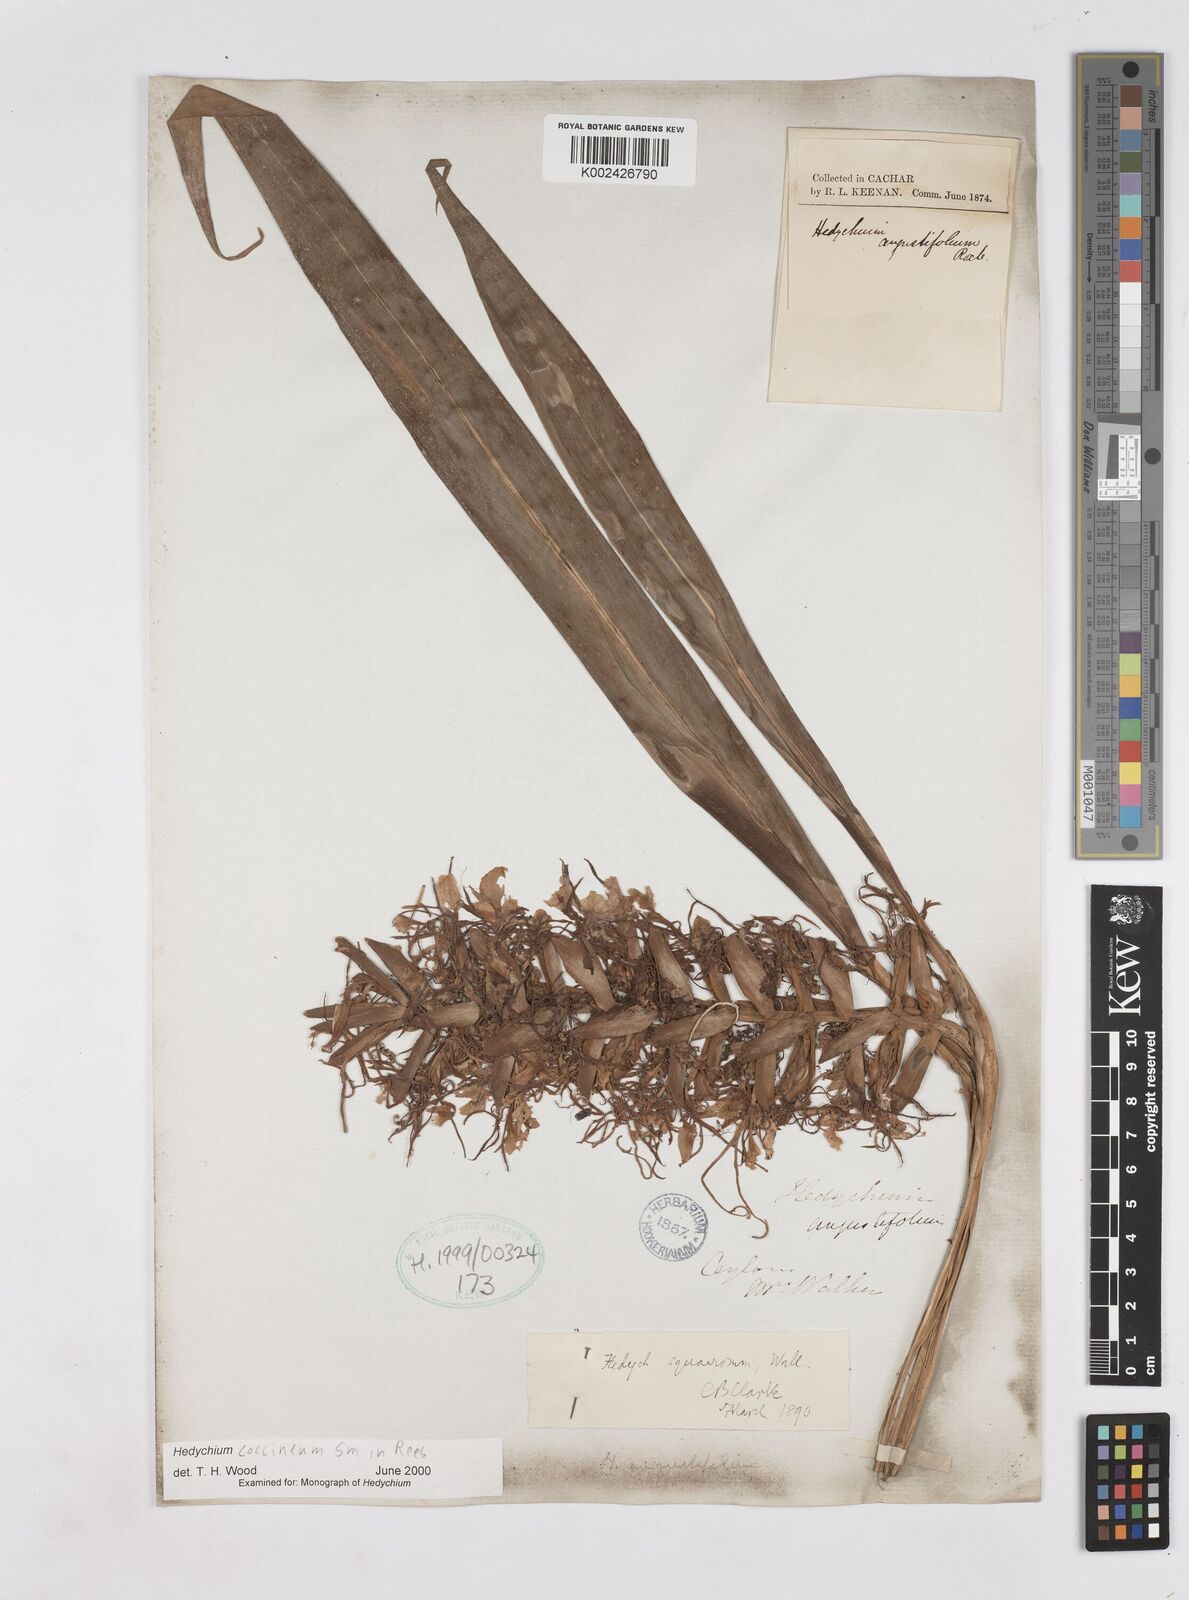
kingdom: Plantae
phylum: Tracheophyta
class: Liliopsida
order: Zingiberales
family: Zingiberaceae
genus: Hedychium
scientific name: Hedychium coccineum
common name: Red ginger-lily
